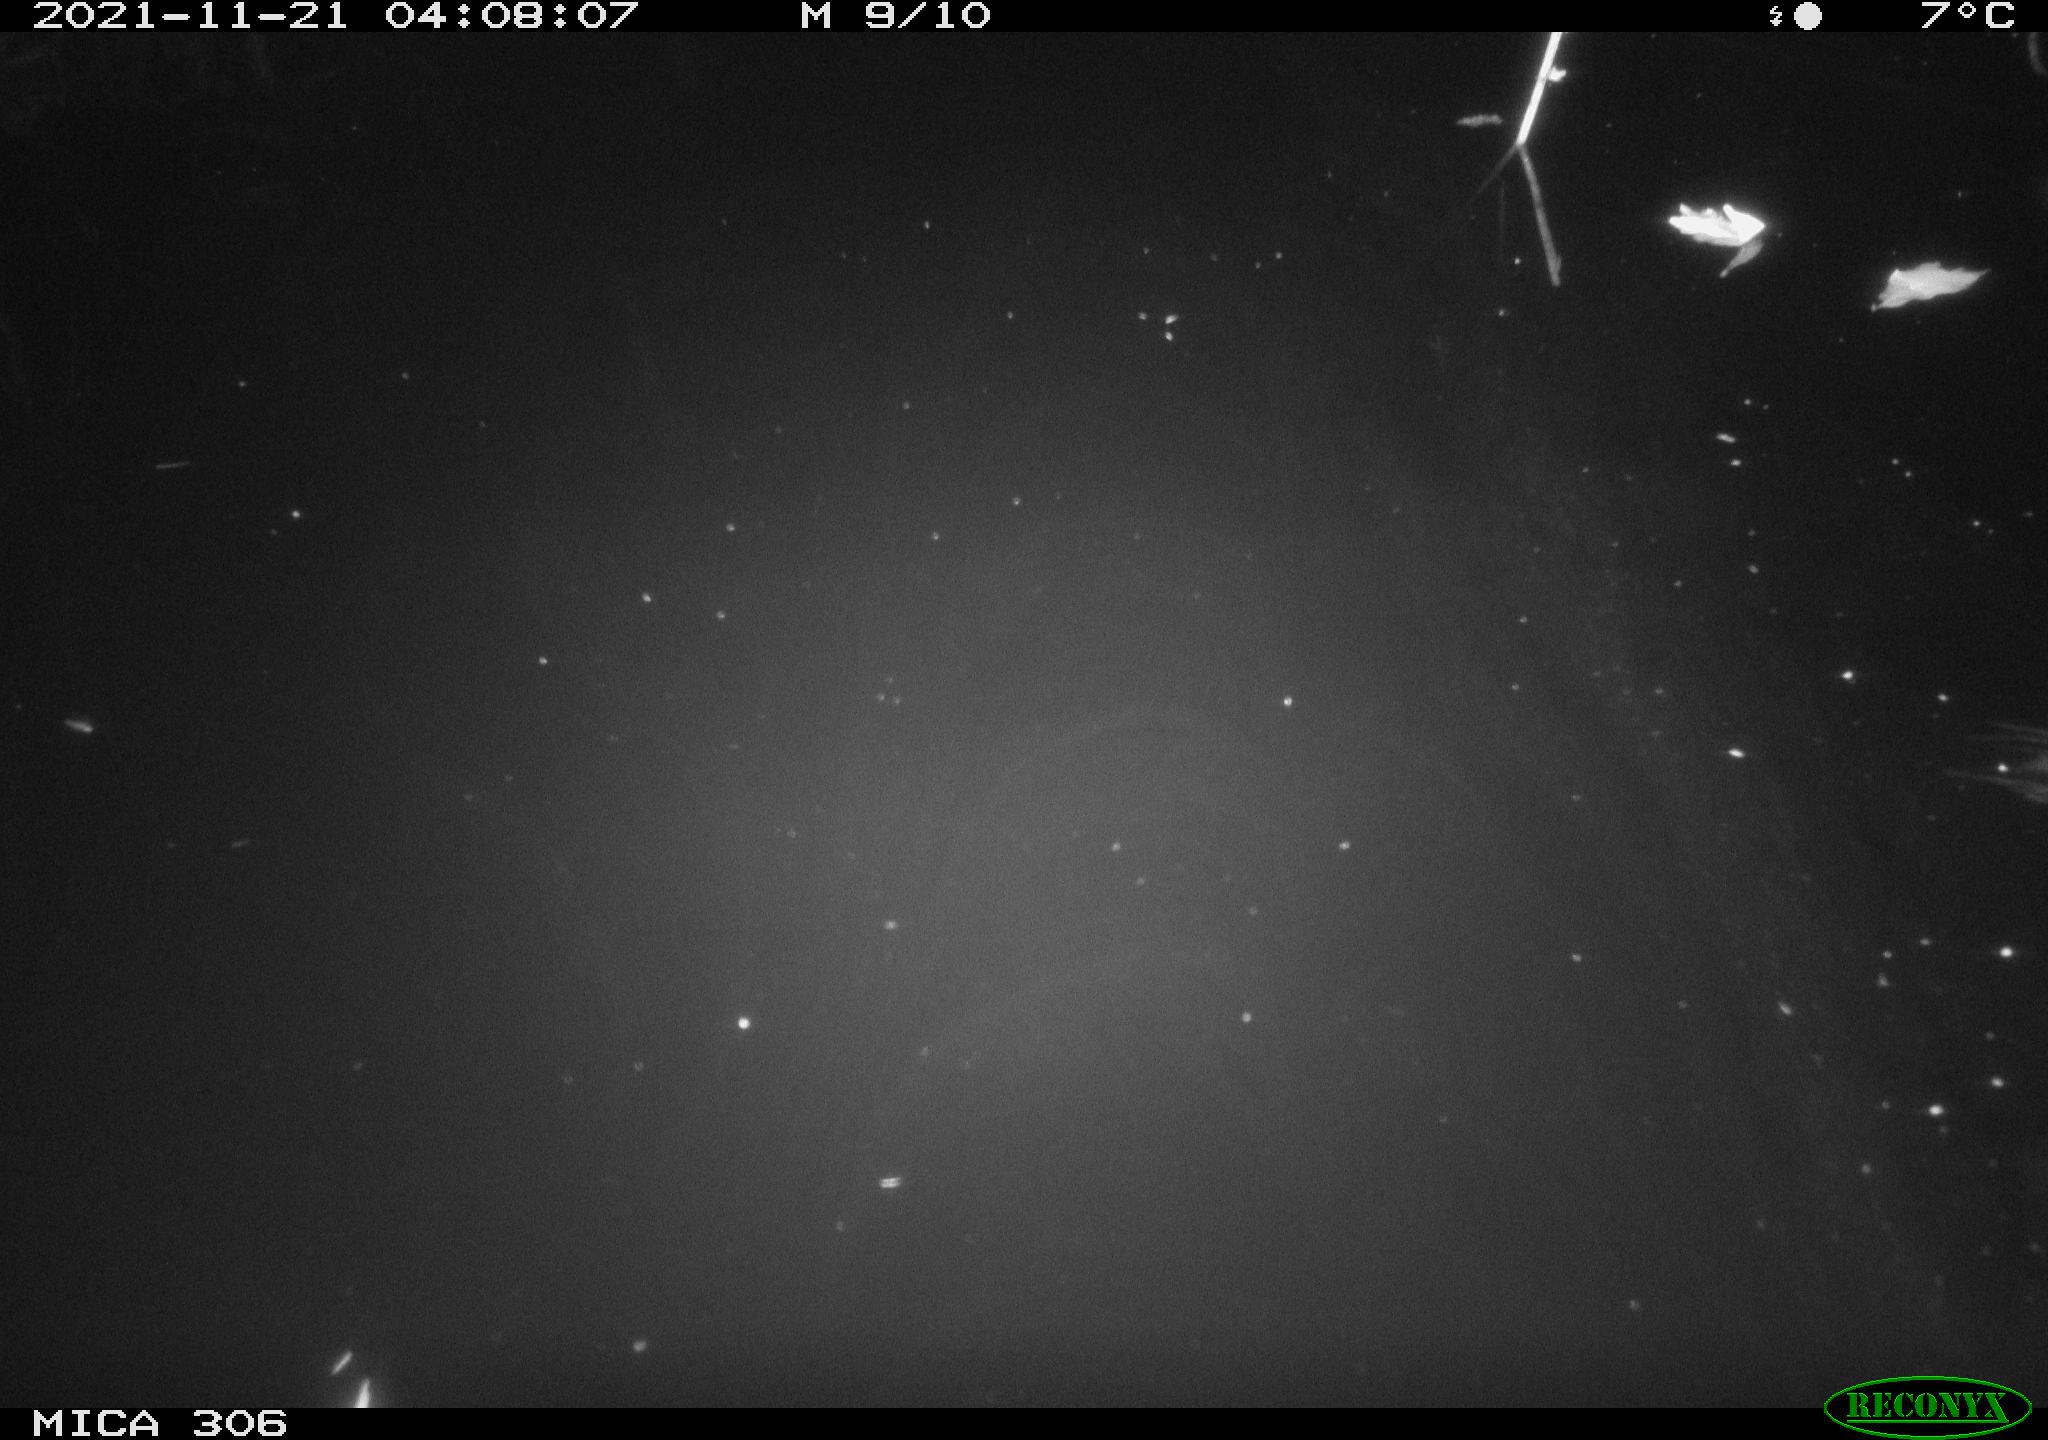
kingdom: Animalia
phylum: Chordata
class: Mammalia
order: Rodentia
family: Muridae
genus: Rattus
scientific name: Rattus norvegicus
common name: Brown rat
